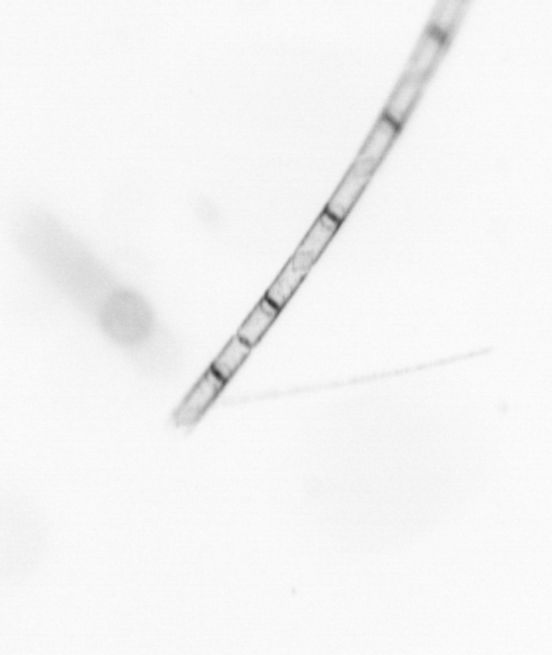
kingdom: Chromista
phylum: Ochrophyta
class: Bacillariophyceae
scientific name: Bacillariophyceae
